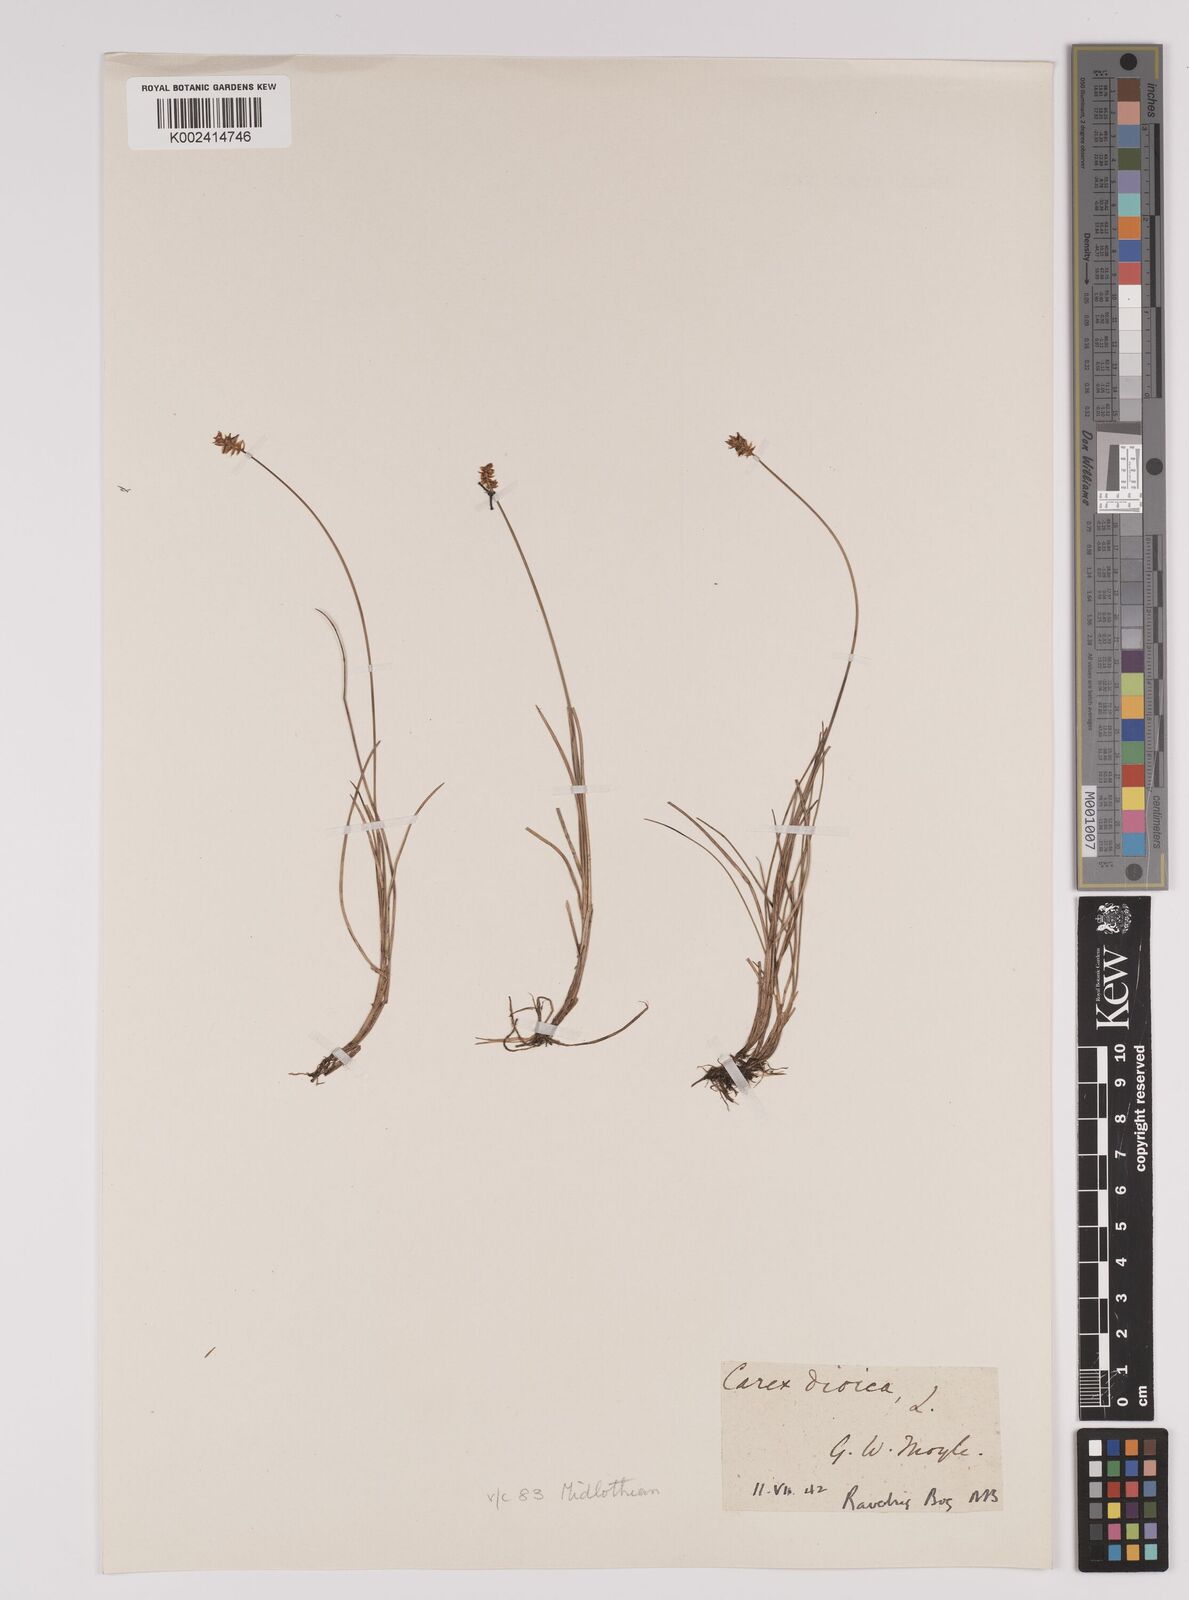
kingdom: Plantae
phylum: Tracheophyta
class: Liliopsida
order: Poales
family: Cyperaceae
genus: Carex
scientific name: Carex dioica
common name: Dioecious sedge
